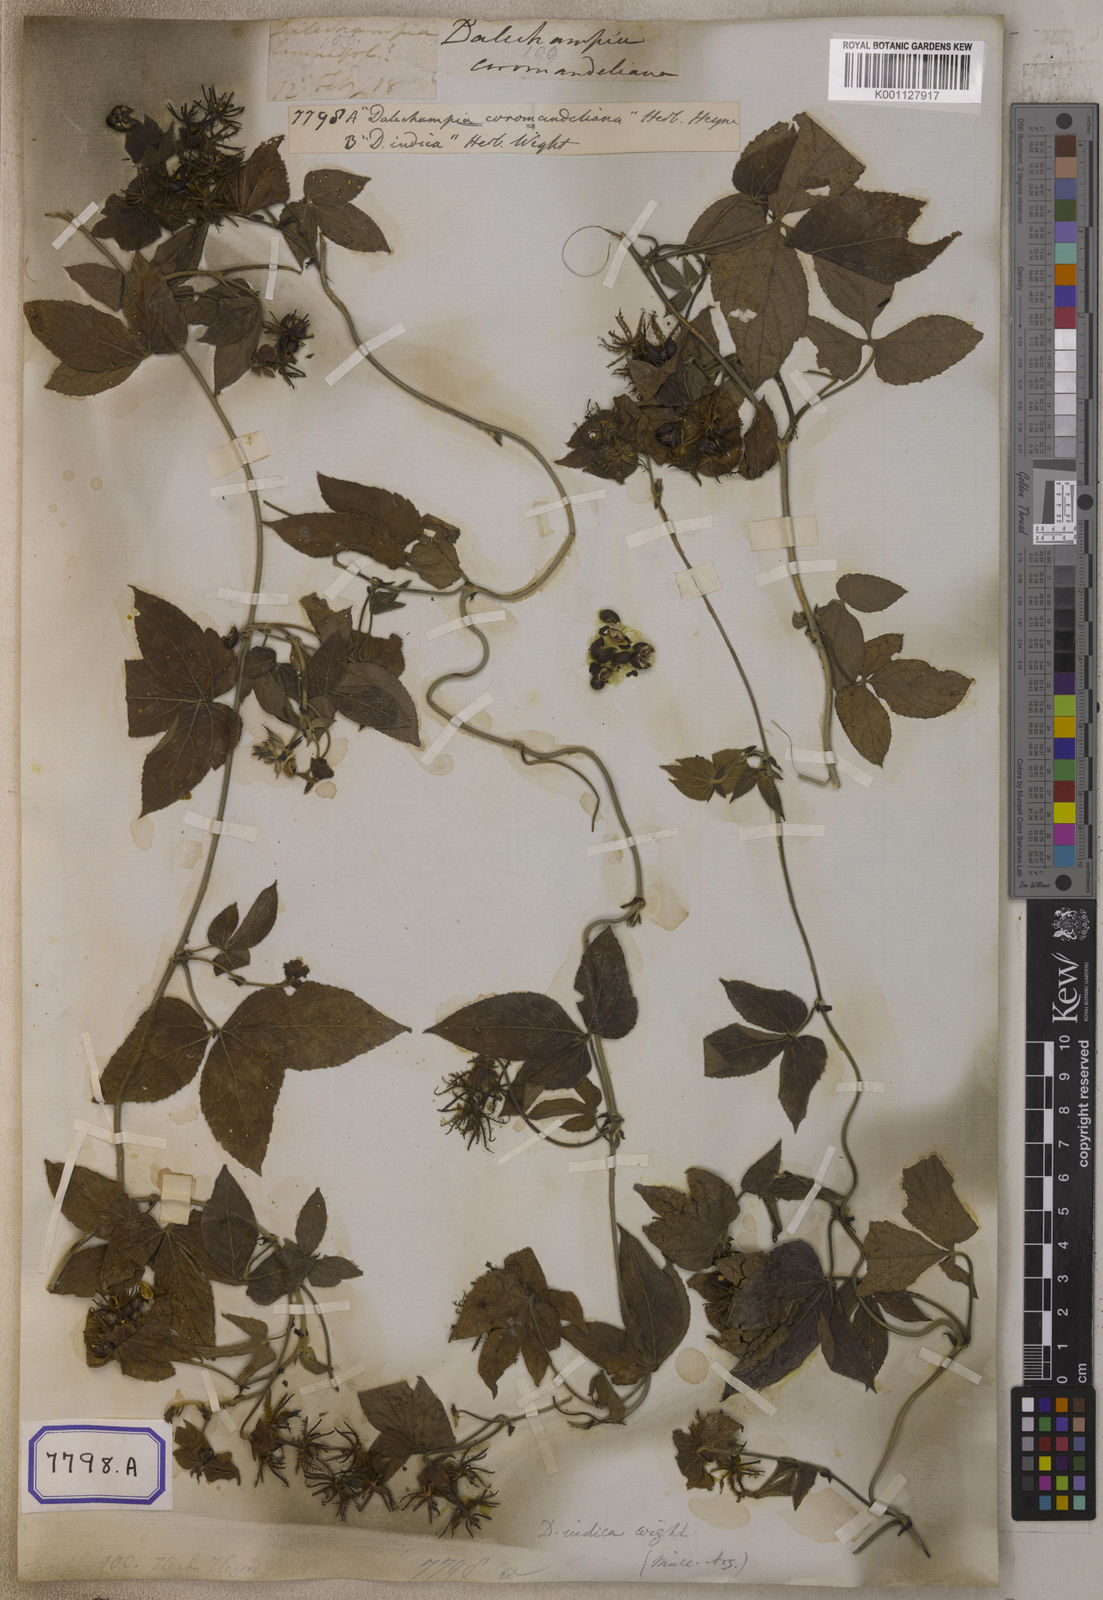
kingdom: Plantae
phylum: Tracheophyta
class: Magnoliopsida
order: Malpighiales
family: Euphorbiaceae
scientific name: Euphorbiaceae
